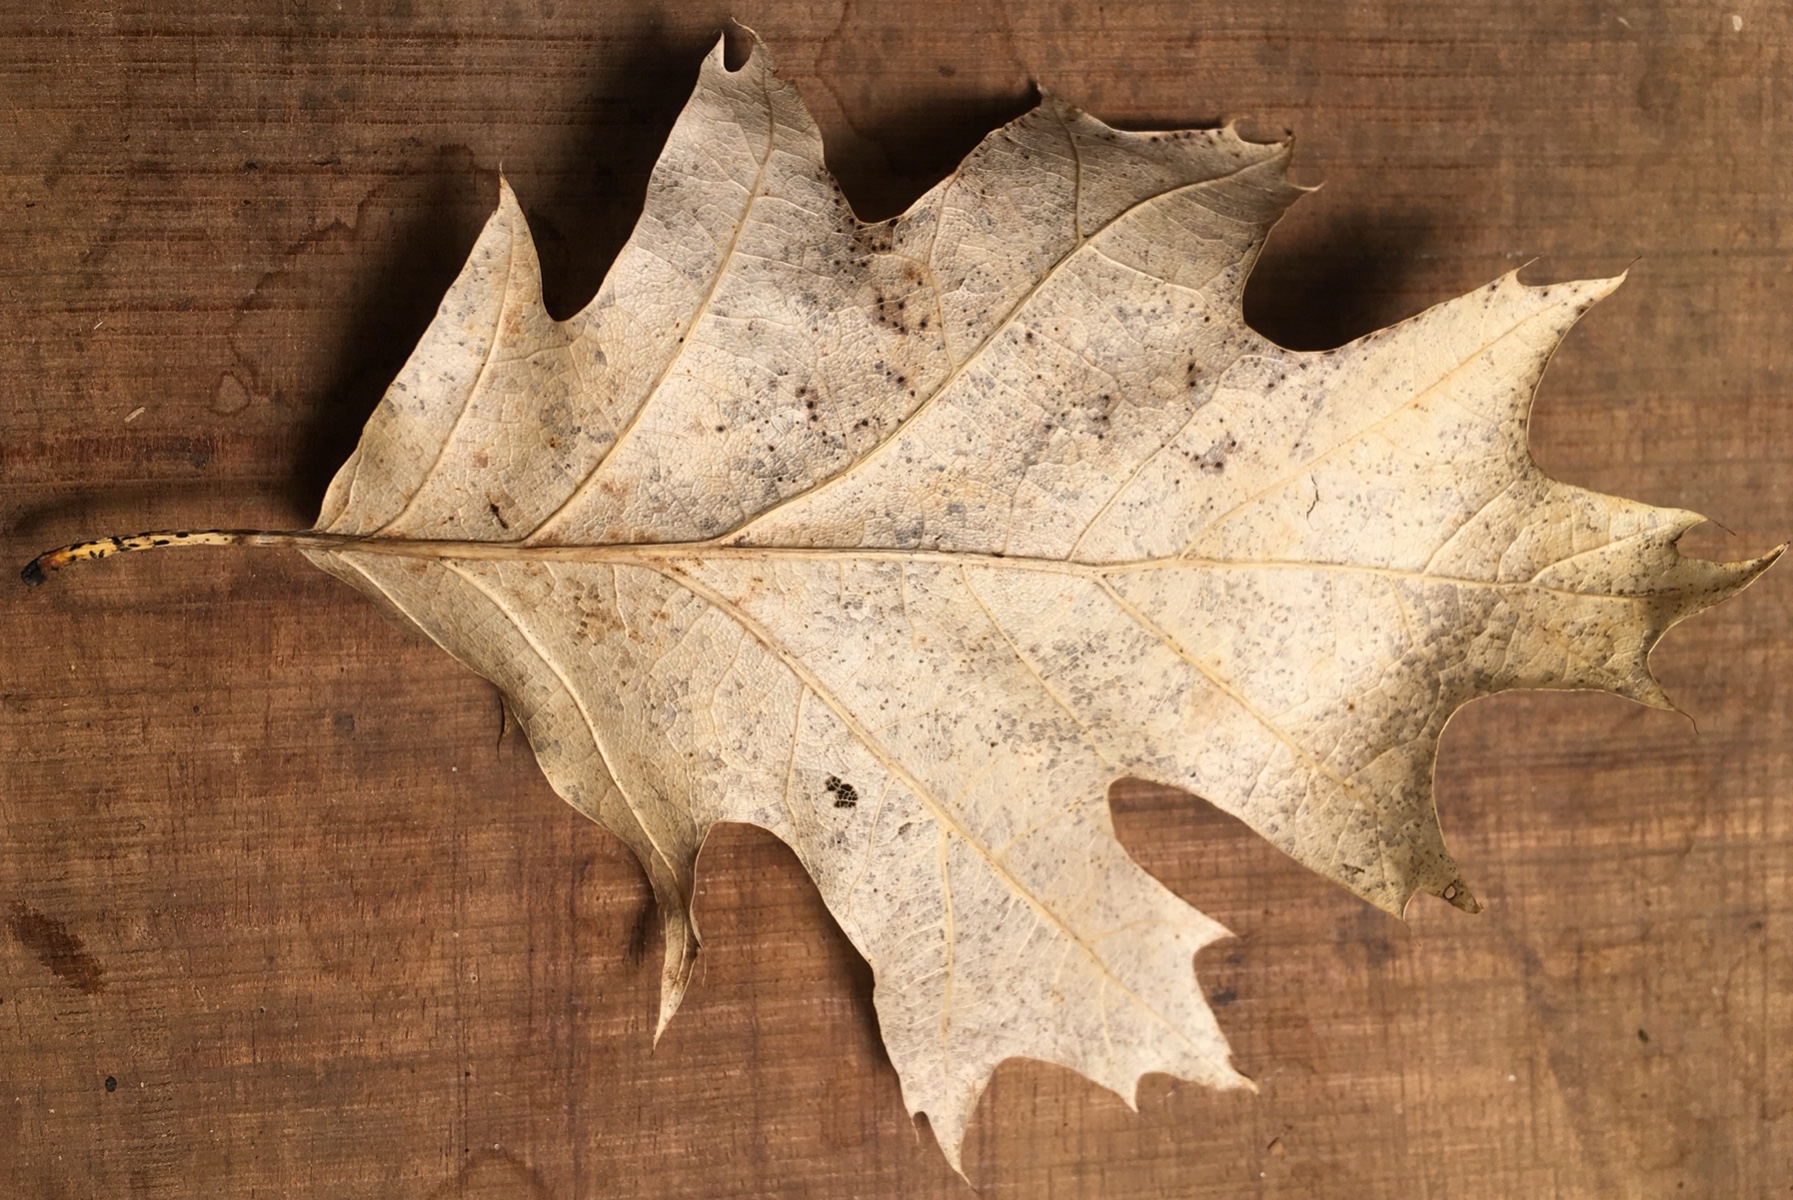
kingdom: Fungi
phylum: Ascomycota
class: Leotiomycetes
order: Rhytismatales
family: Rhytismataceae
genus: Lophodermium
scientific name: Lophodermium petiolicola
